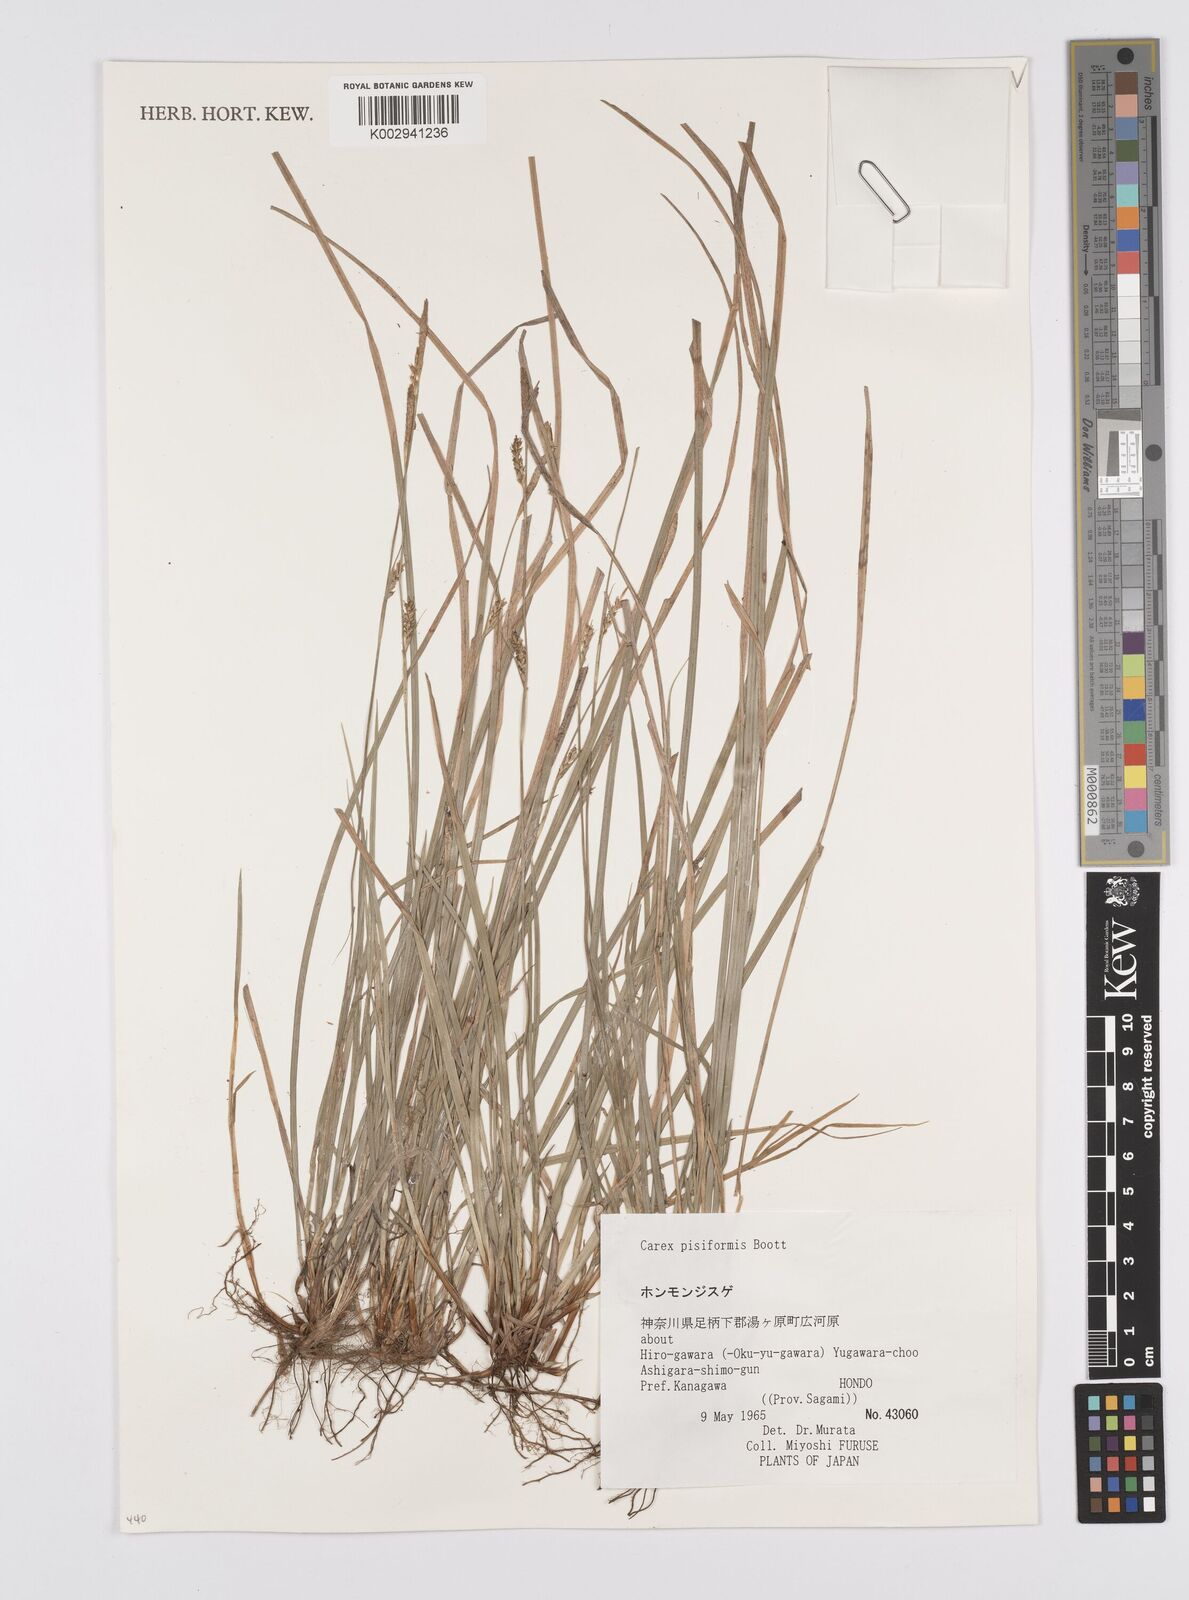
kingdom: Plantae
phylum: Tracheophyta
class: Liliopsida
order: Poales
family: Cyperaceae
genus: Carex
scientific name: Carex pisiformis
